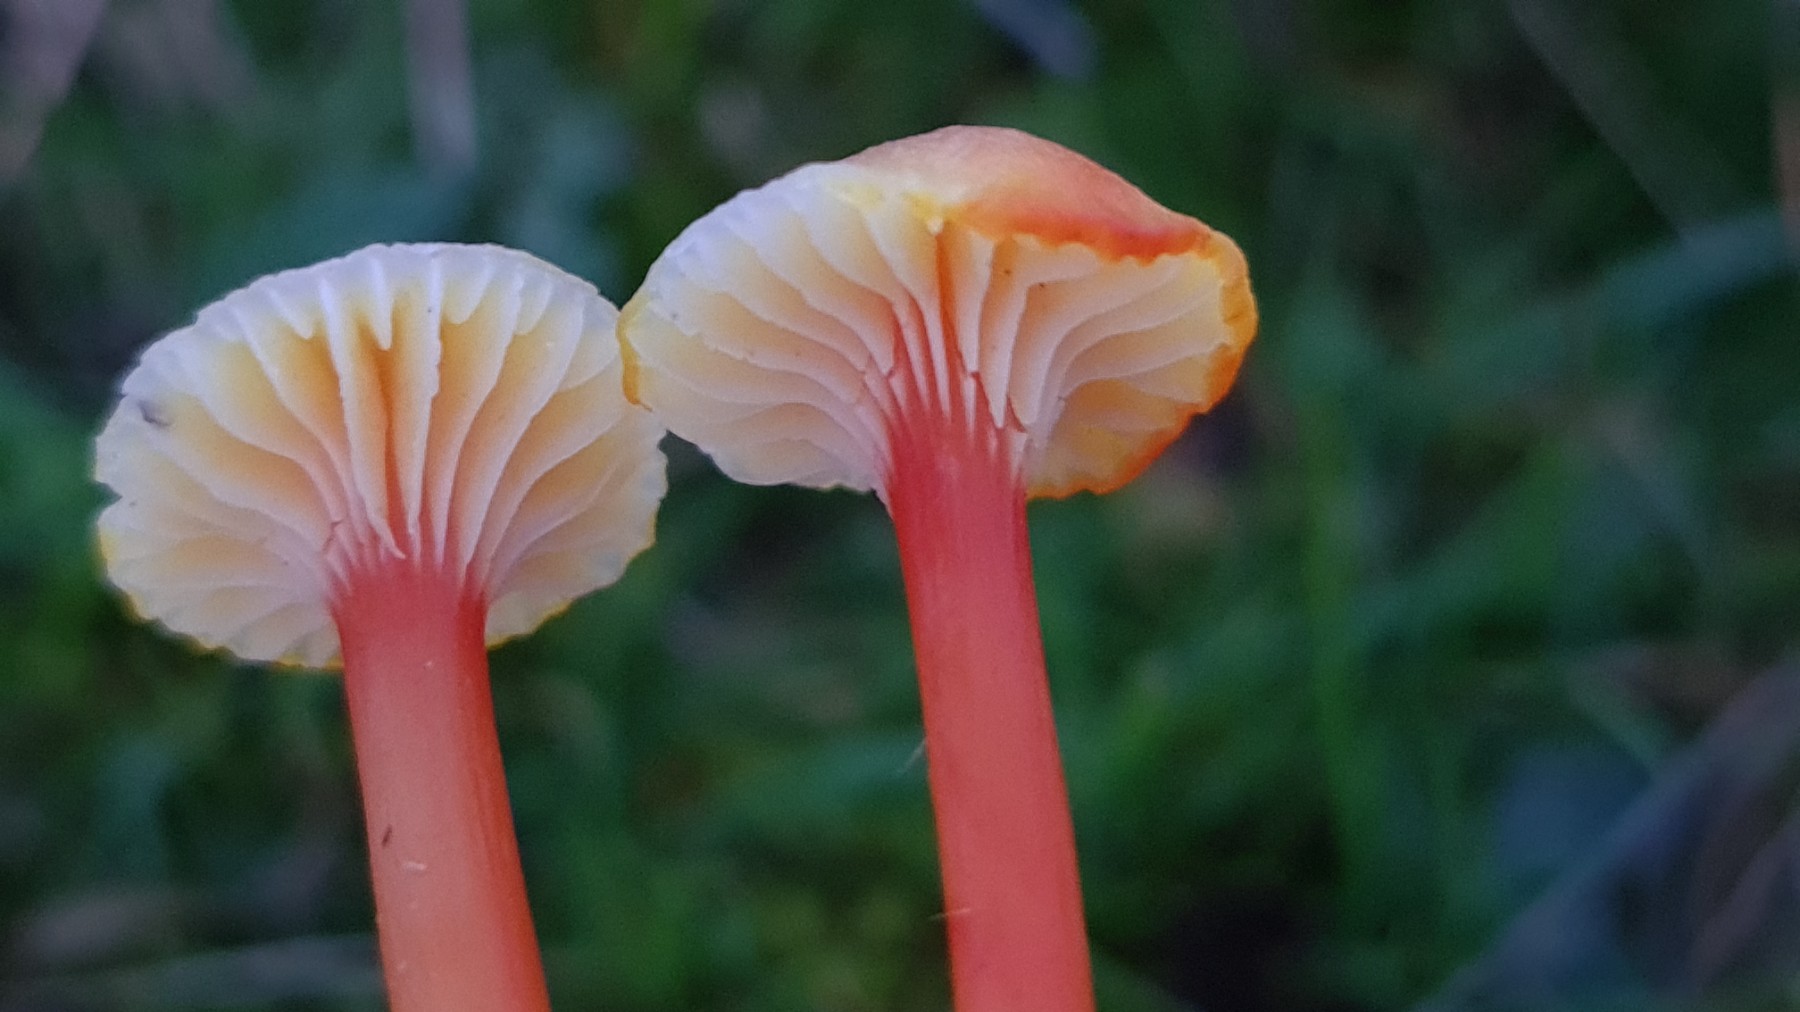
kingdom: Fungi
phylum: Basidiomycota
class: Agaricomycetes
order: Agaricales
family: Hygrophoraceae
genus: Hygrocybe
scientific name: Hygrocybe cantharellus
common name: kantarel-vokshat
